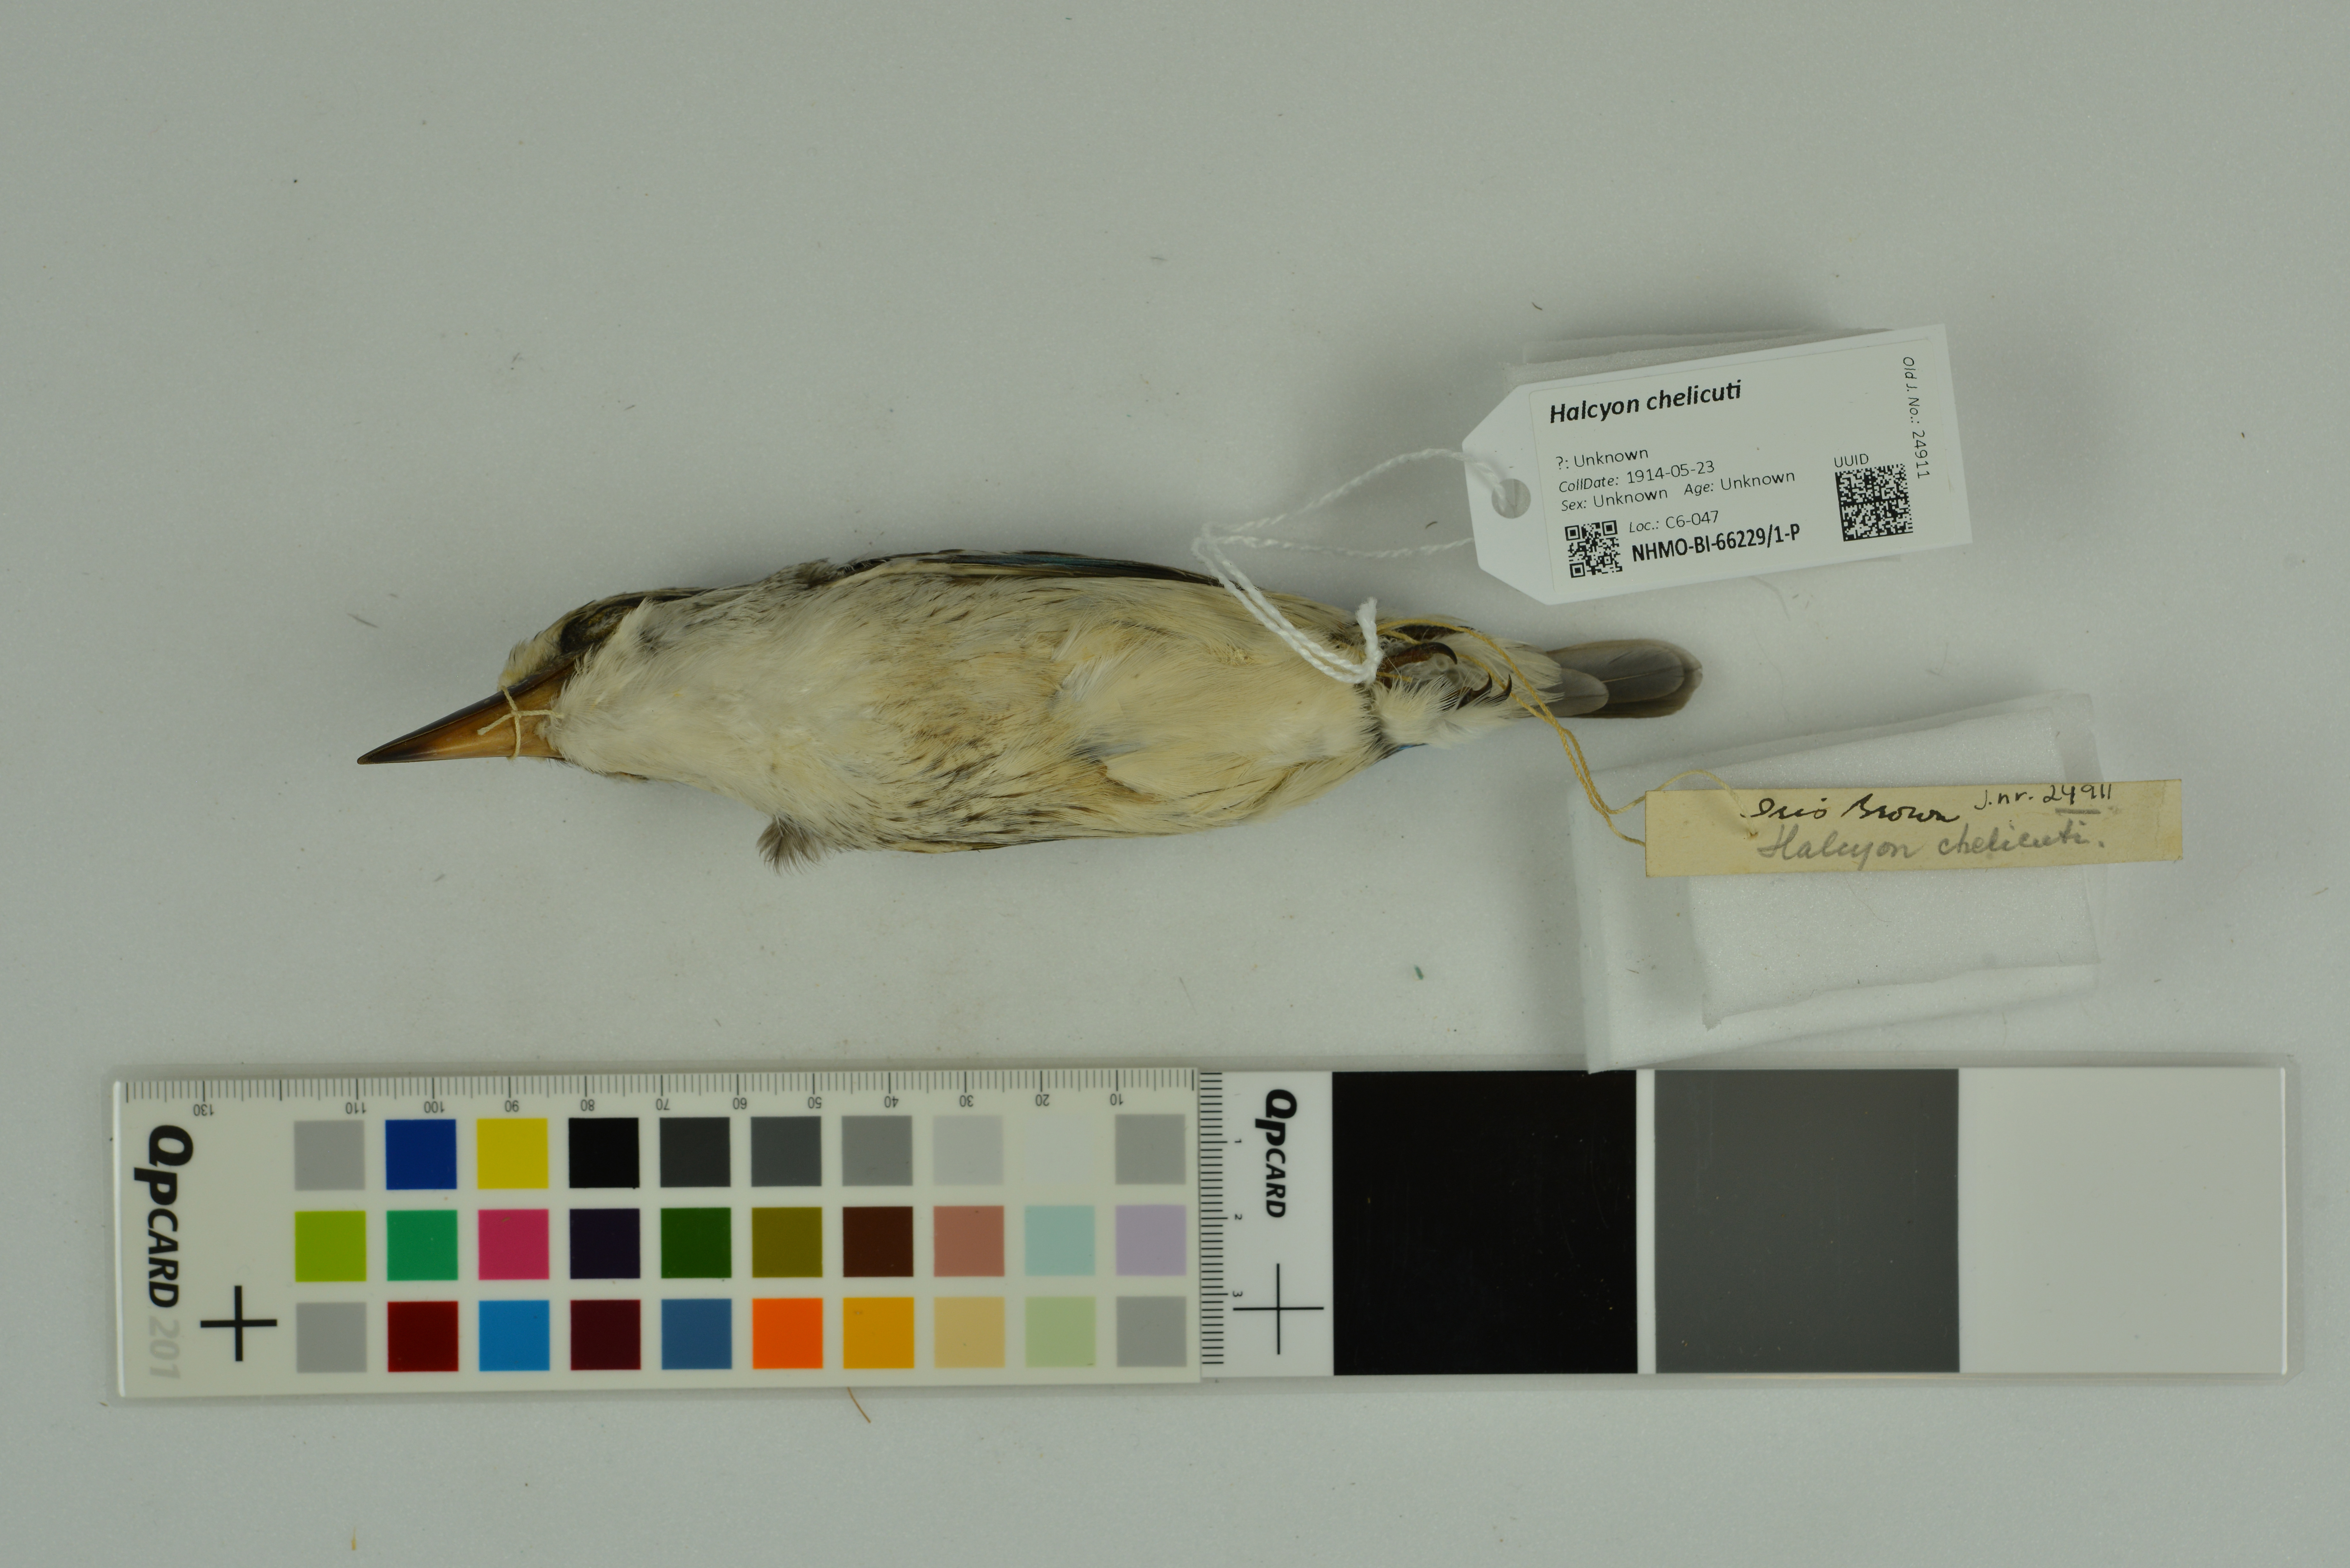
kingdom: Animalia
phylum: Chordata
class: Aves
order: Coraciiformes
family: Alcedinidae
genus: Halcyon
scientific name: Halcyon chelicuti
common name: Striped kingfisher
